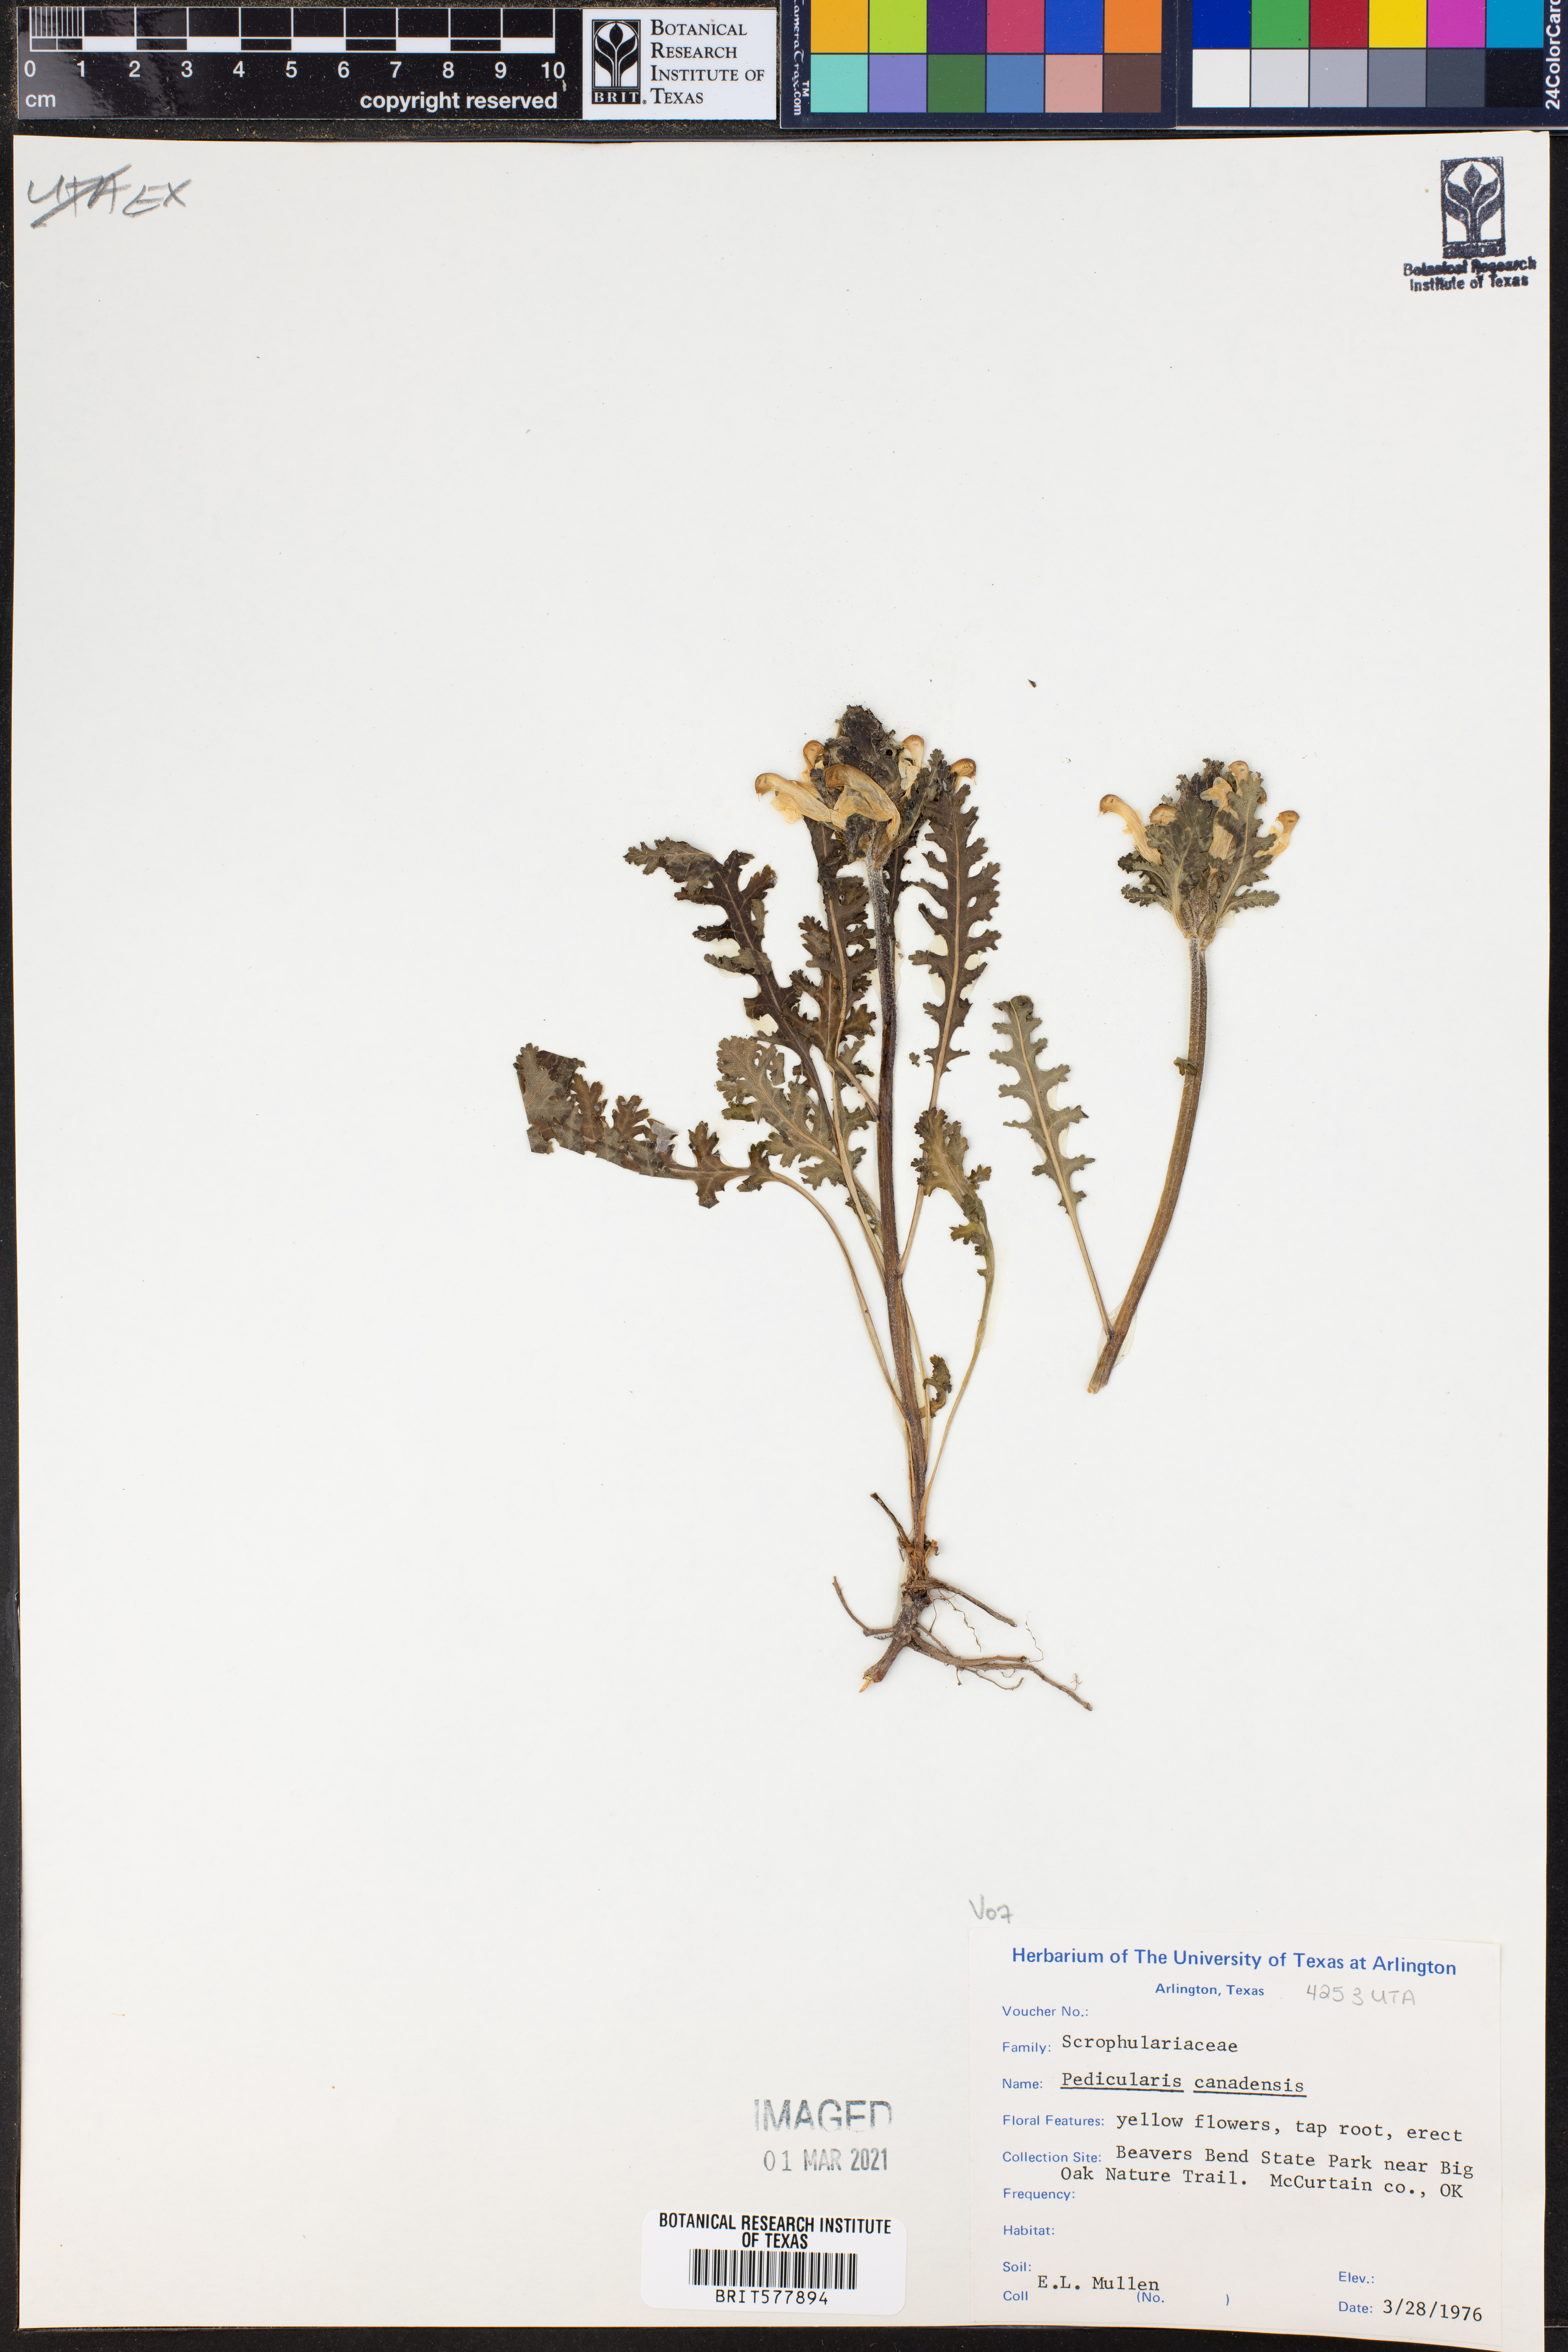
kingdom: Plantae
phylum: Tracheophyta
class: Magnoliopsida
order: Lamiales
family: Orobanchaceae
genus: Pedicularis
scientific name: Pedicularis canadensis
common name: Early lousewort
